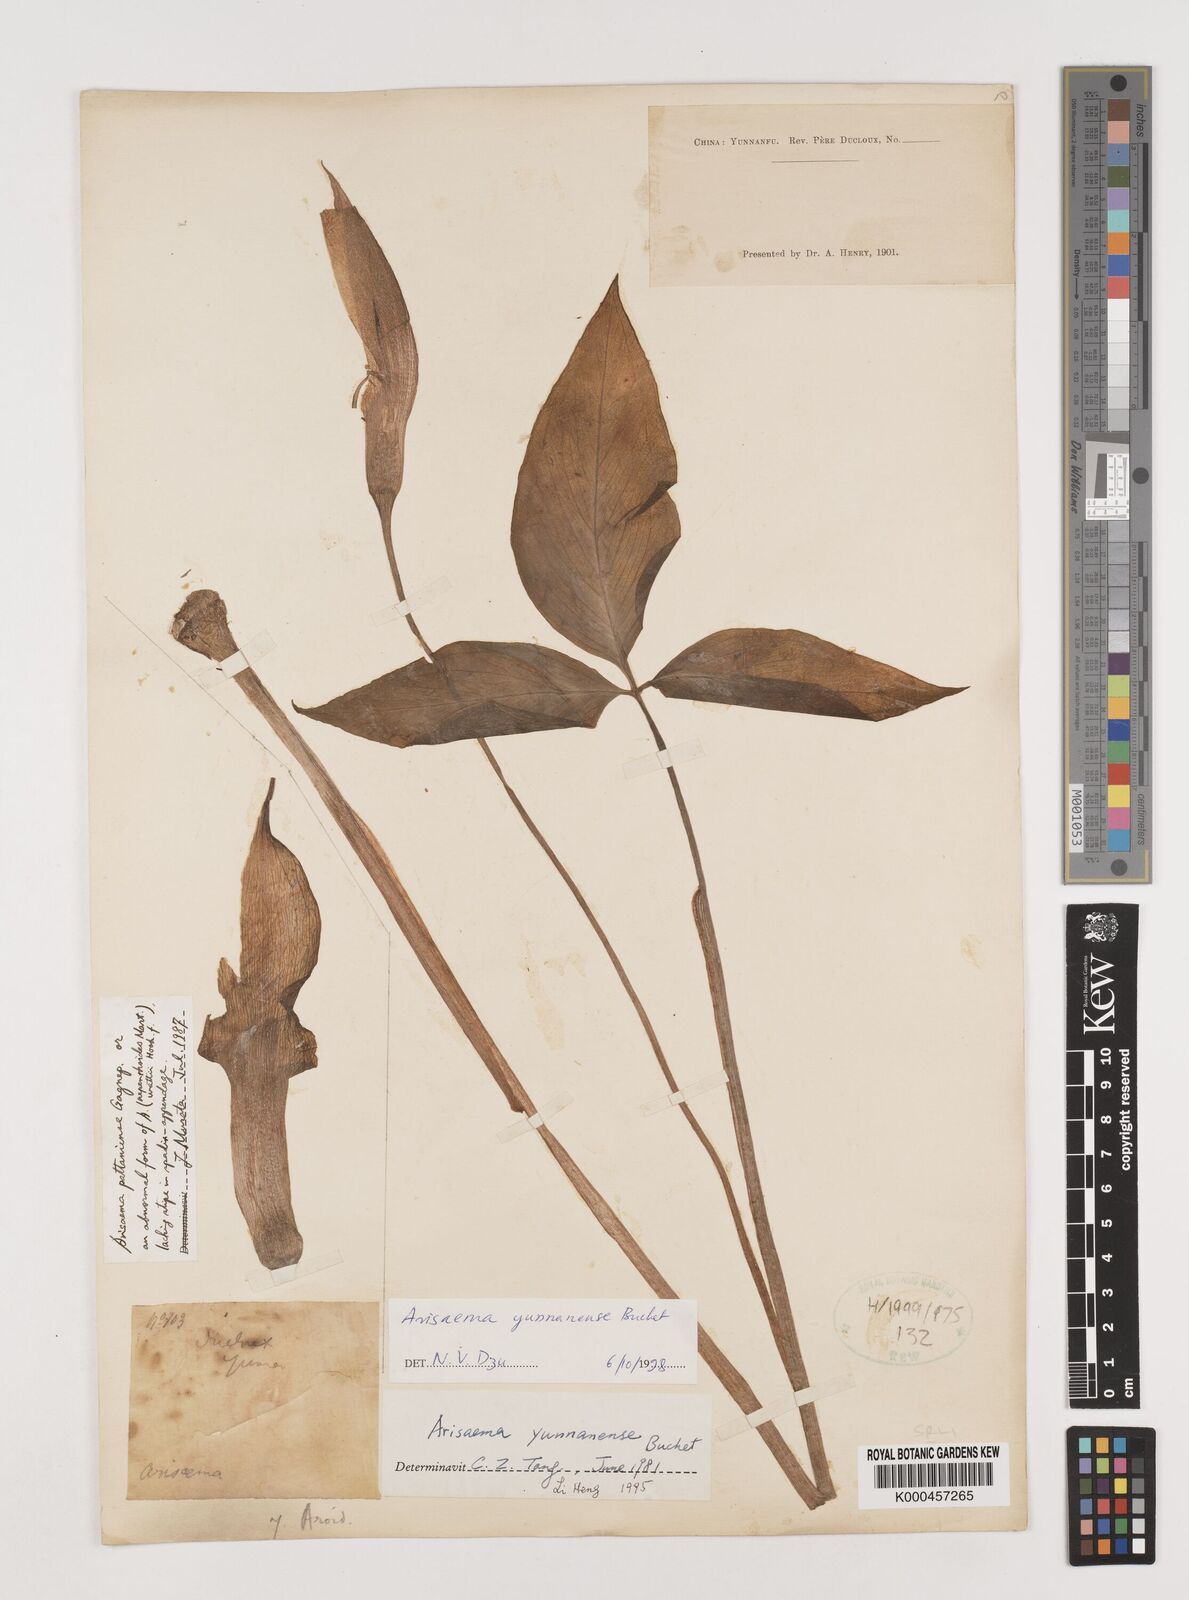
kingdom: Plantae
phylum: Tracheophyta
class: Liliopsida
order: Alismatales
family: Araceae
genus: Arisaema
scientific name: Arisaema yunnanense
